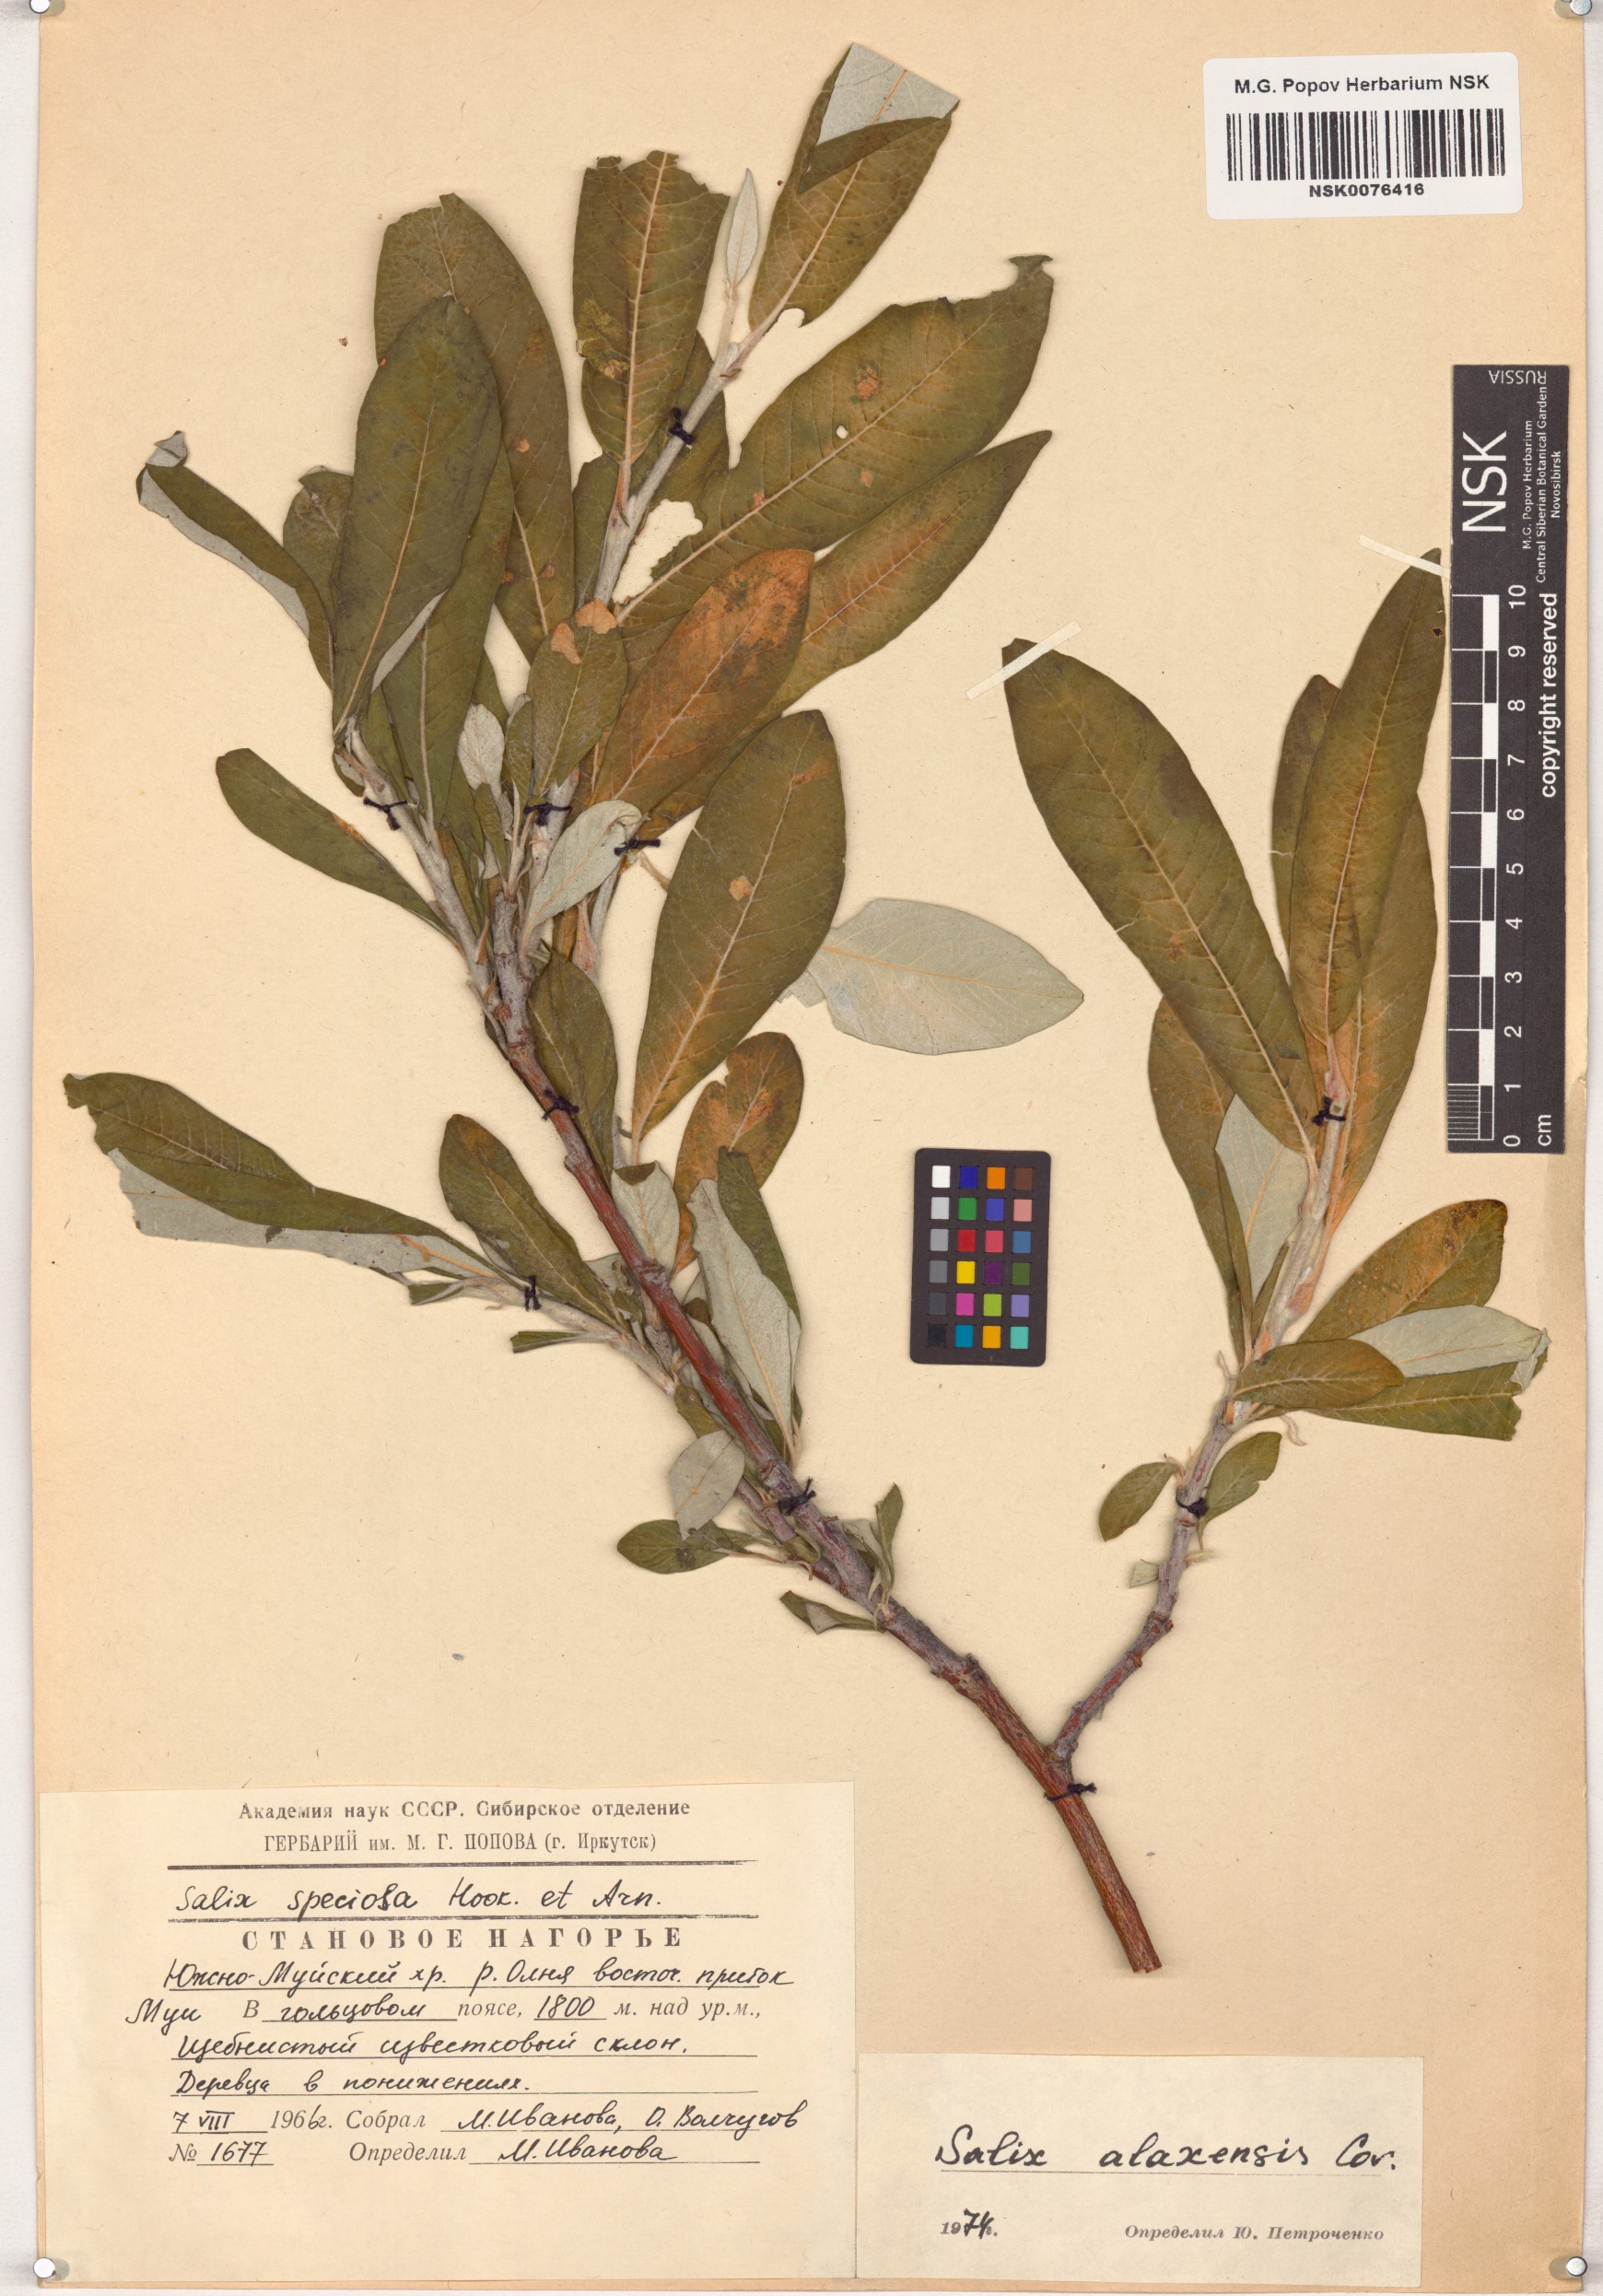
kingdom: Plantae
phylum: Tracheophyta
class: Magnoliopsida
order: Malpighiales
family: Salicaceae
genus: Salix
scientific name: Salix alaxensis
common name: Feltleaf willow
